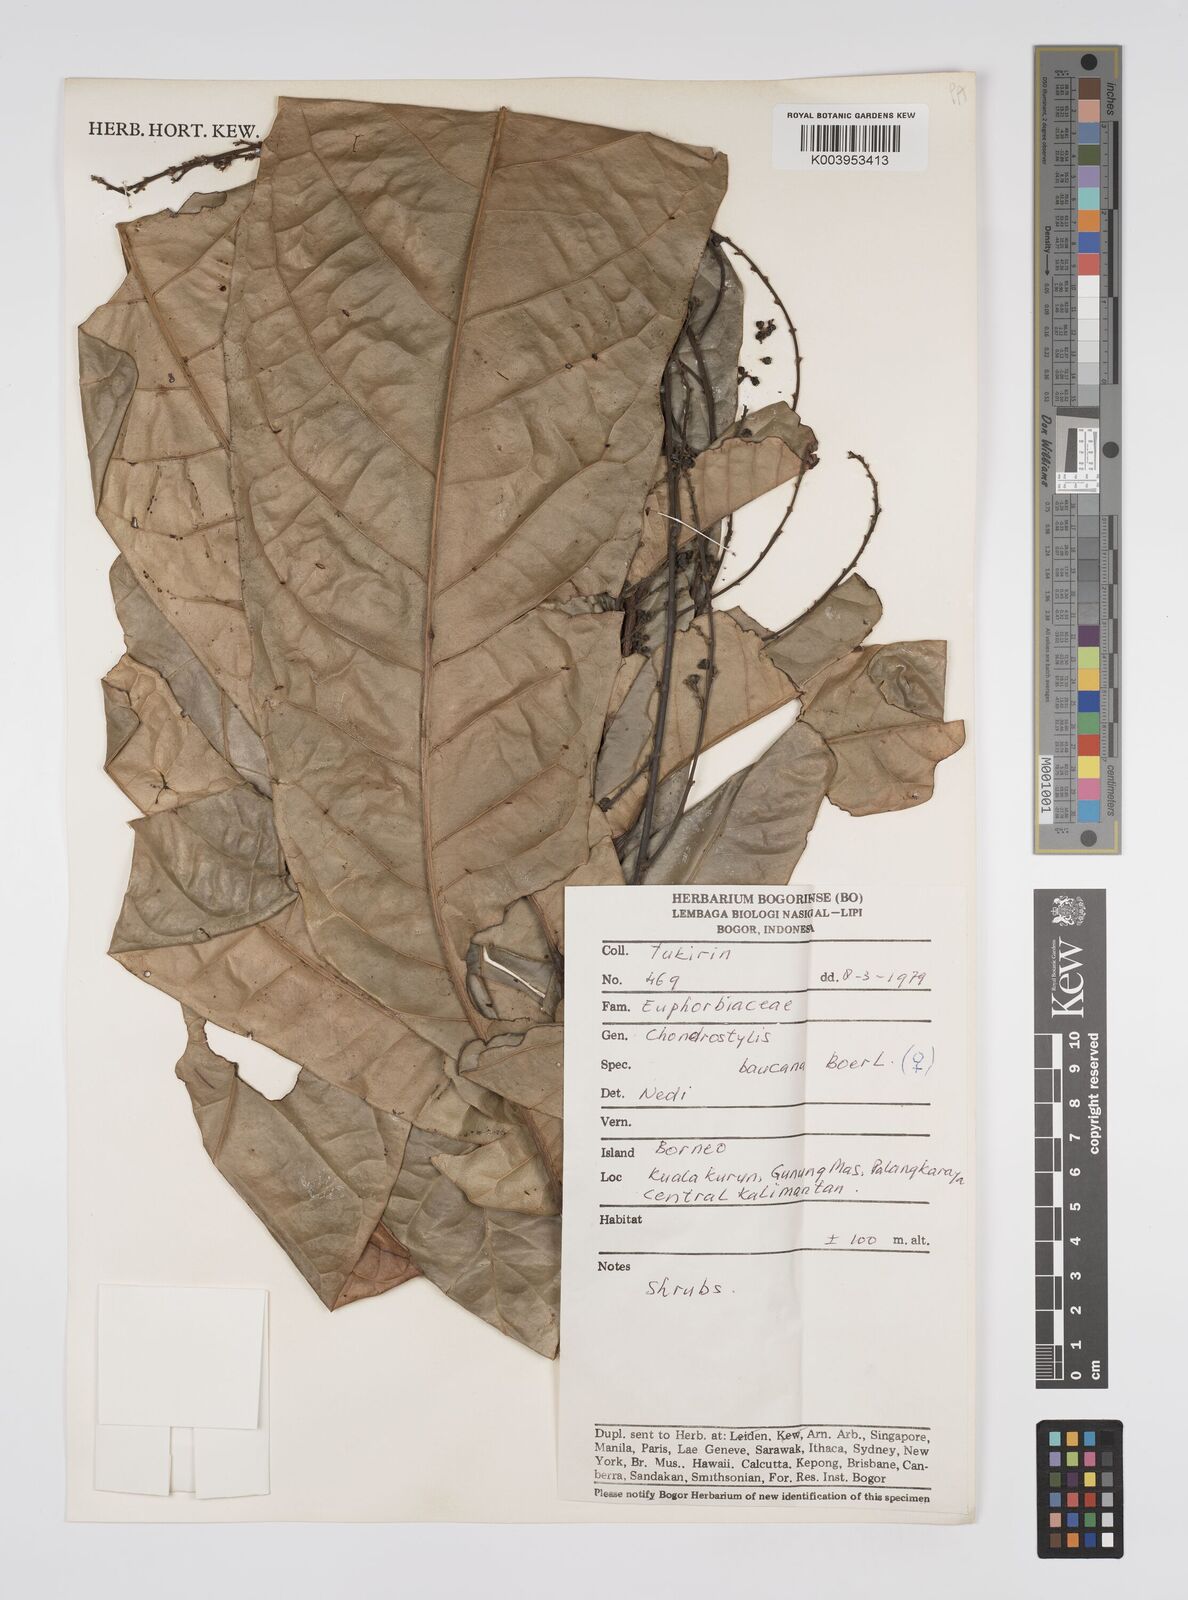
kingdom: Plantae
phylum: Tracheophyta
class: Magnoliopsida
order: Malpighiales
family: Euphorbiaceae
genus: Chondrostylis
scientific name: Chondrostylis bancana
